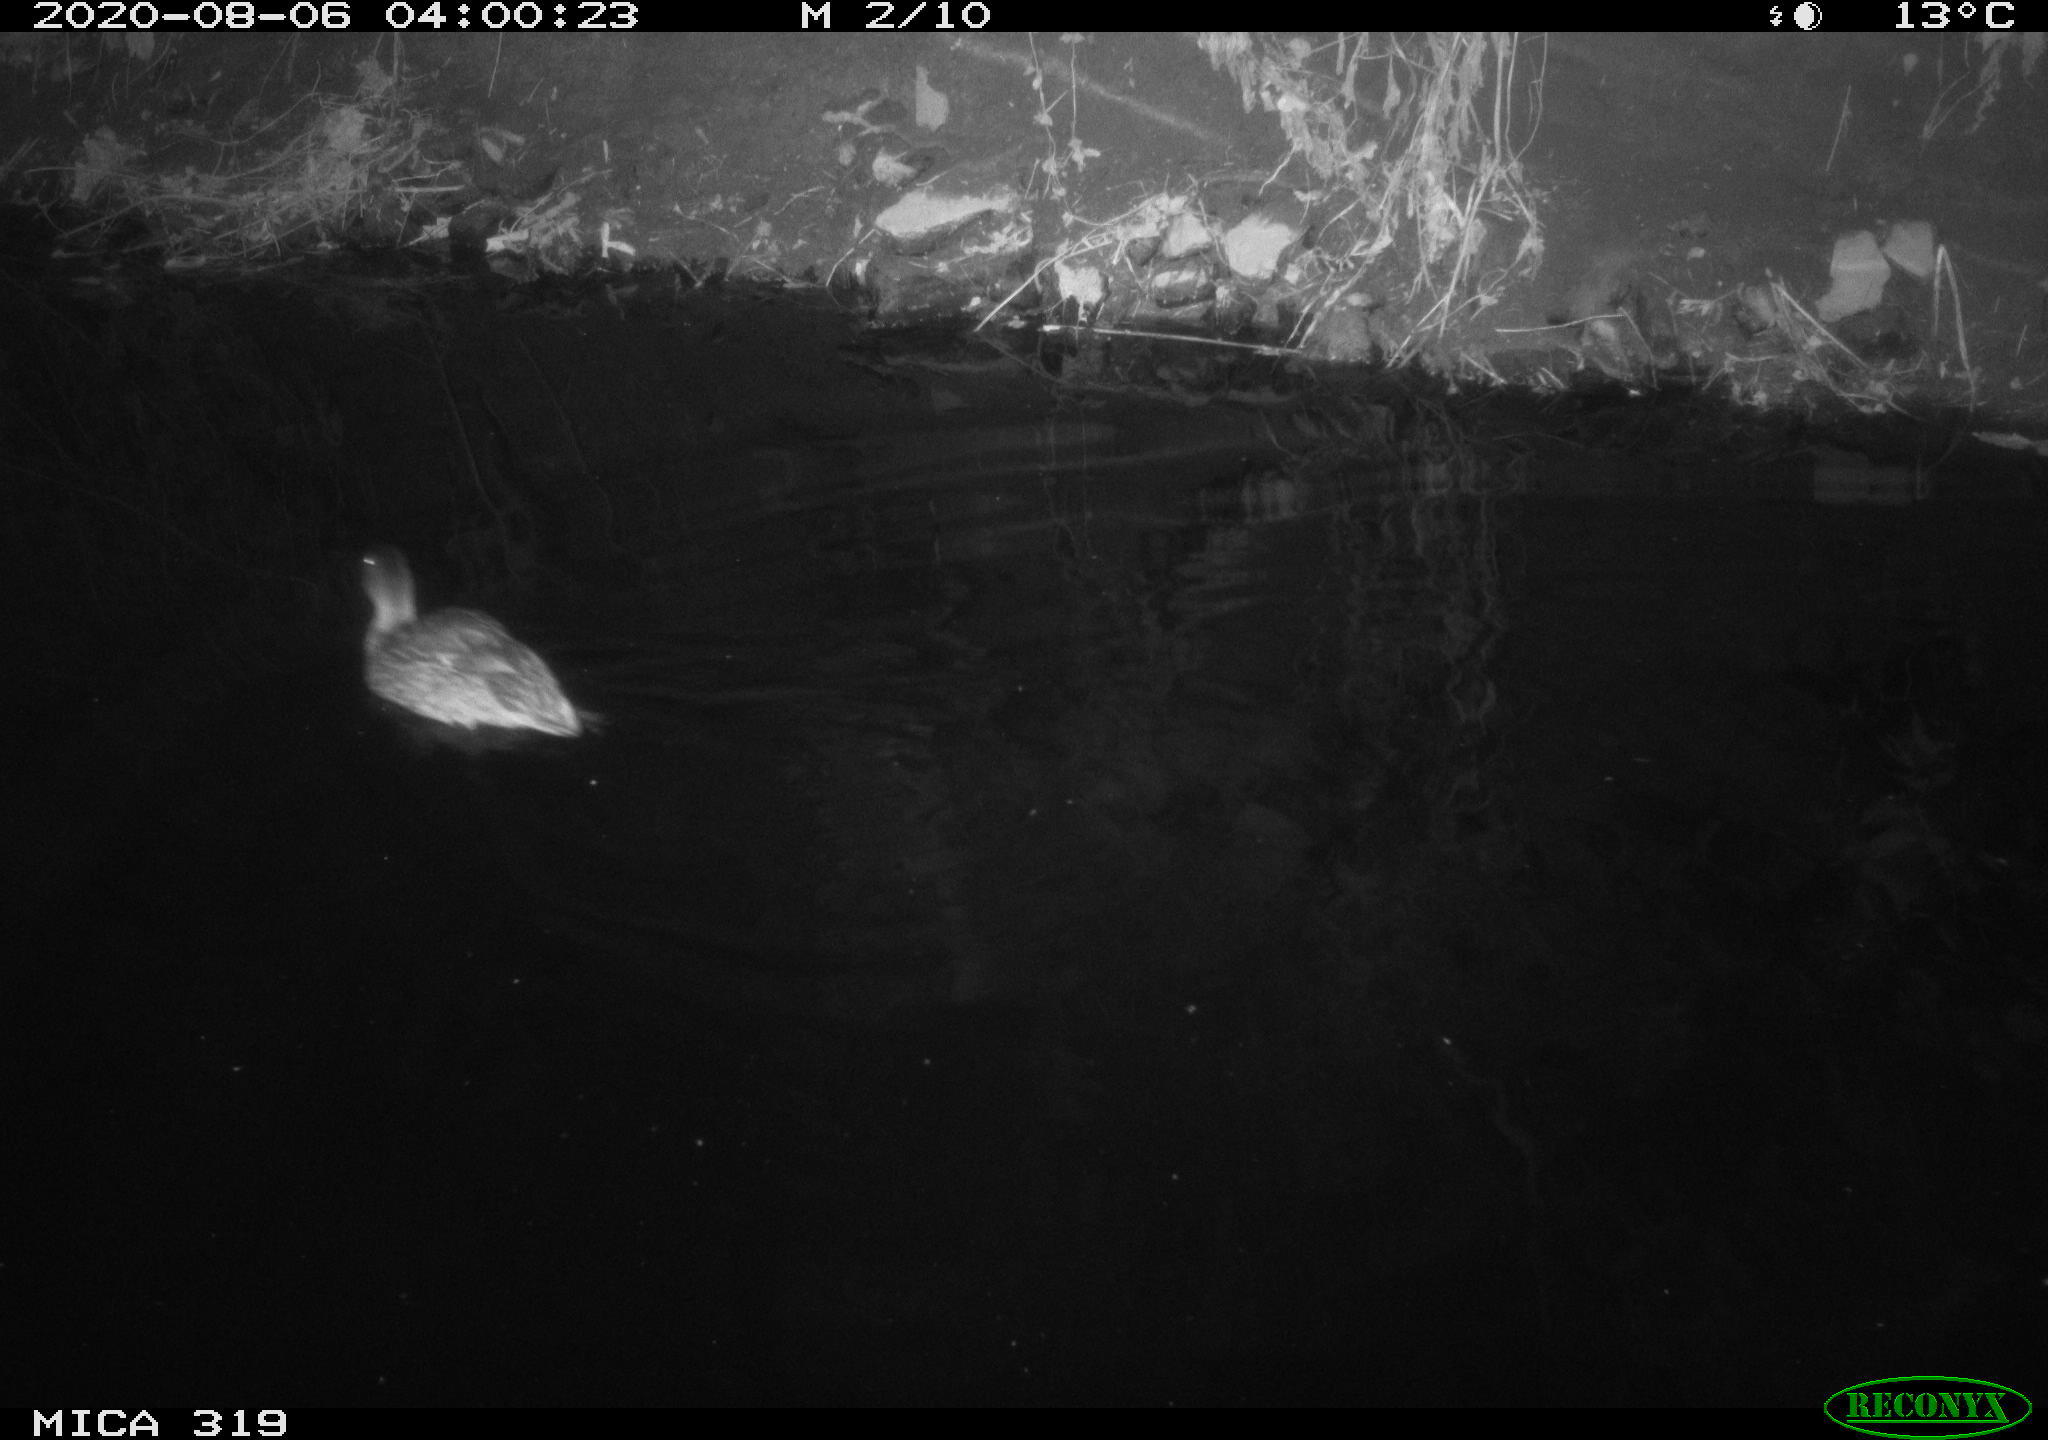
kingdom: Animalia
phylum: Chordata
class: Aves
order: Anseriformes
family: Anatidae
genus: Anas
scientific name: Anas platyrhynchos
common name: Mallard
